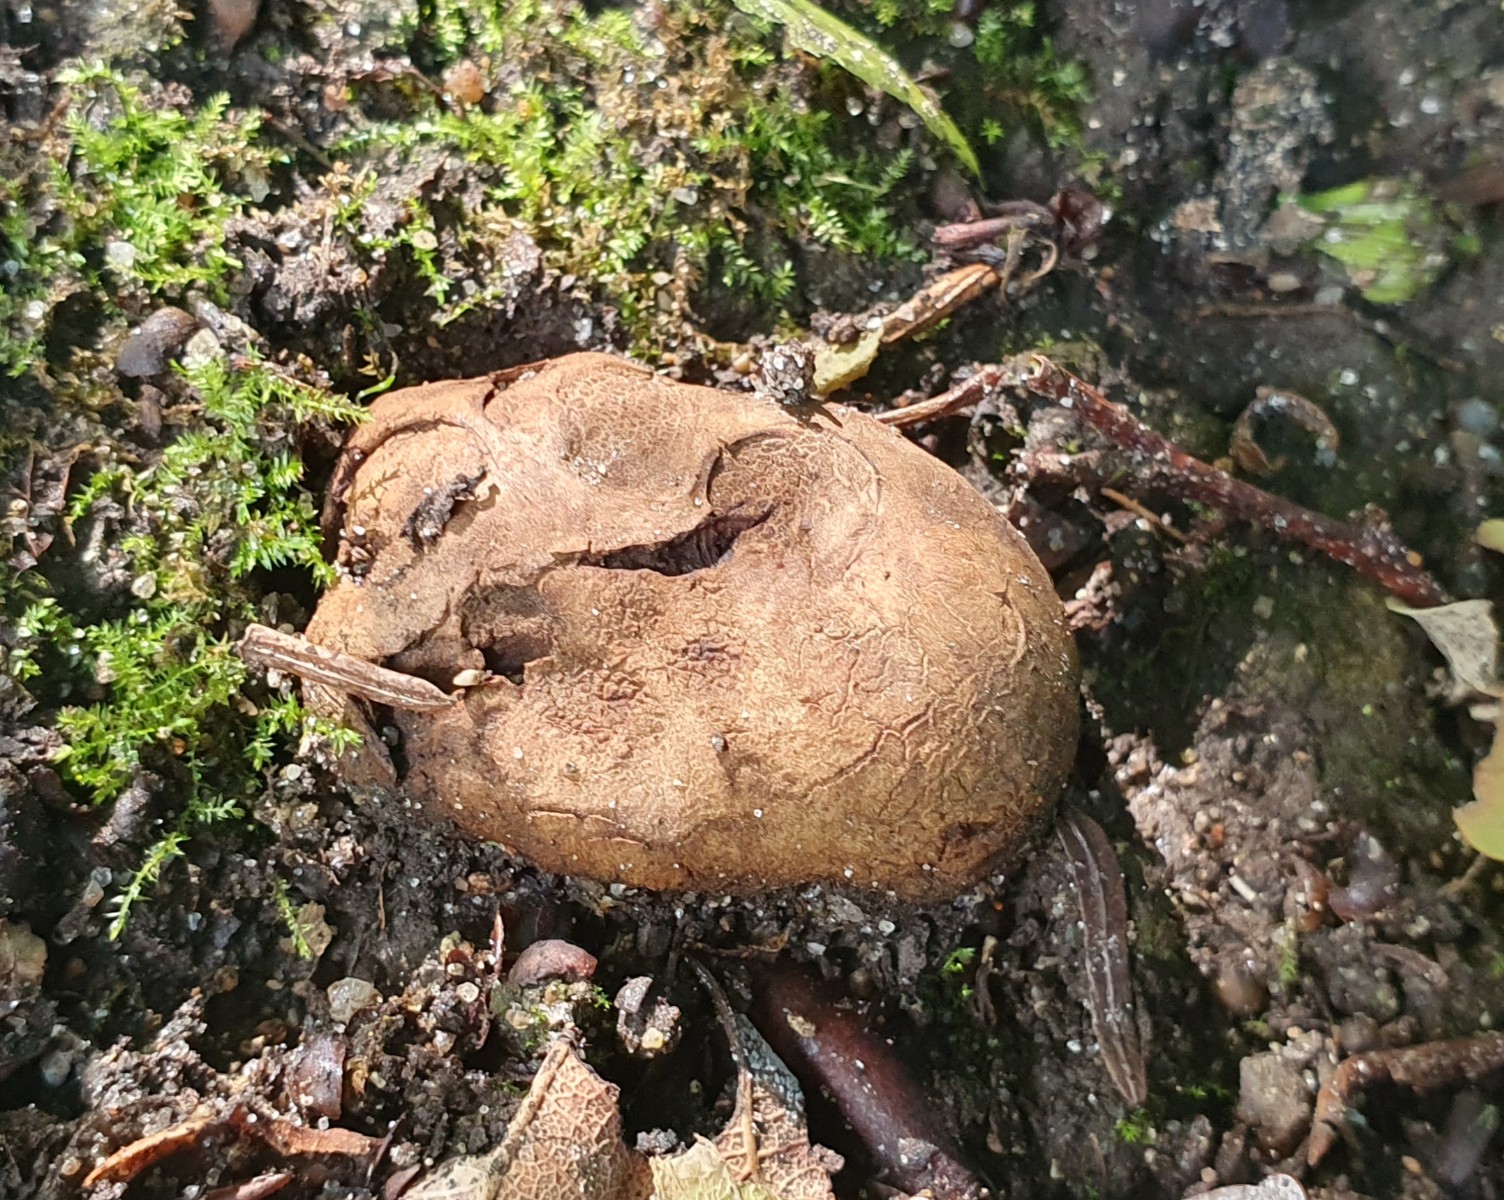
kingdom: Fungi
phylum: Basidiomycota
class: Agaricomycetes
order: Boletales
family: Paxillaceae
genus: Melanogaster
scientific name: Melanogaster broomeanus
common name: broget slimtrøffel
